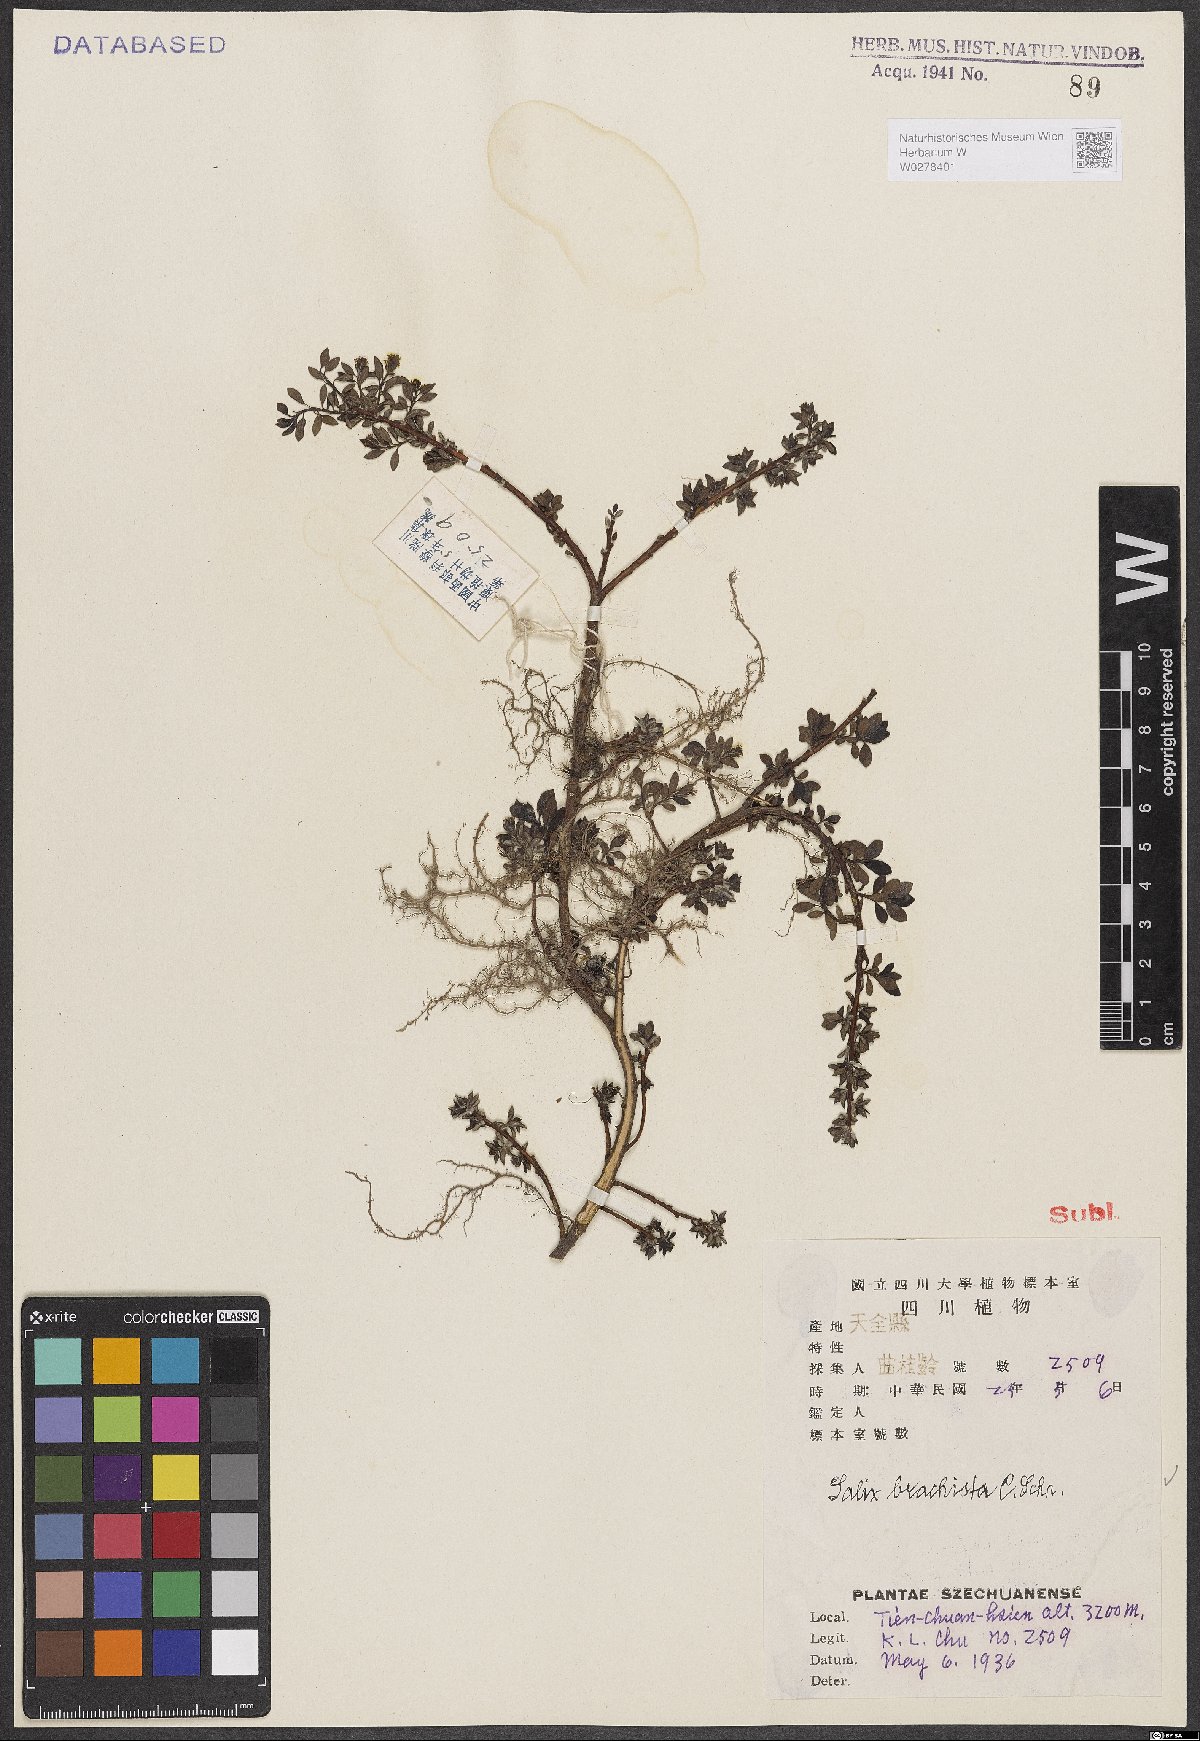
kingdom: Plantae
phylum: Tracheophyta
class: Magnoliopsida
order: Malpighiales
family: Salicaceae
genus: Salix
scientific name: Salix lindleyana
